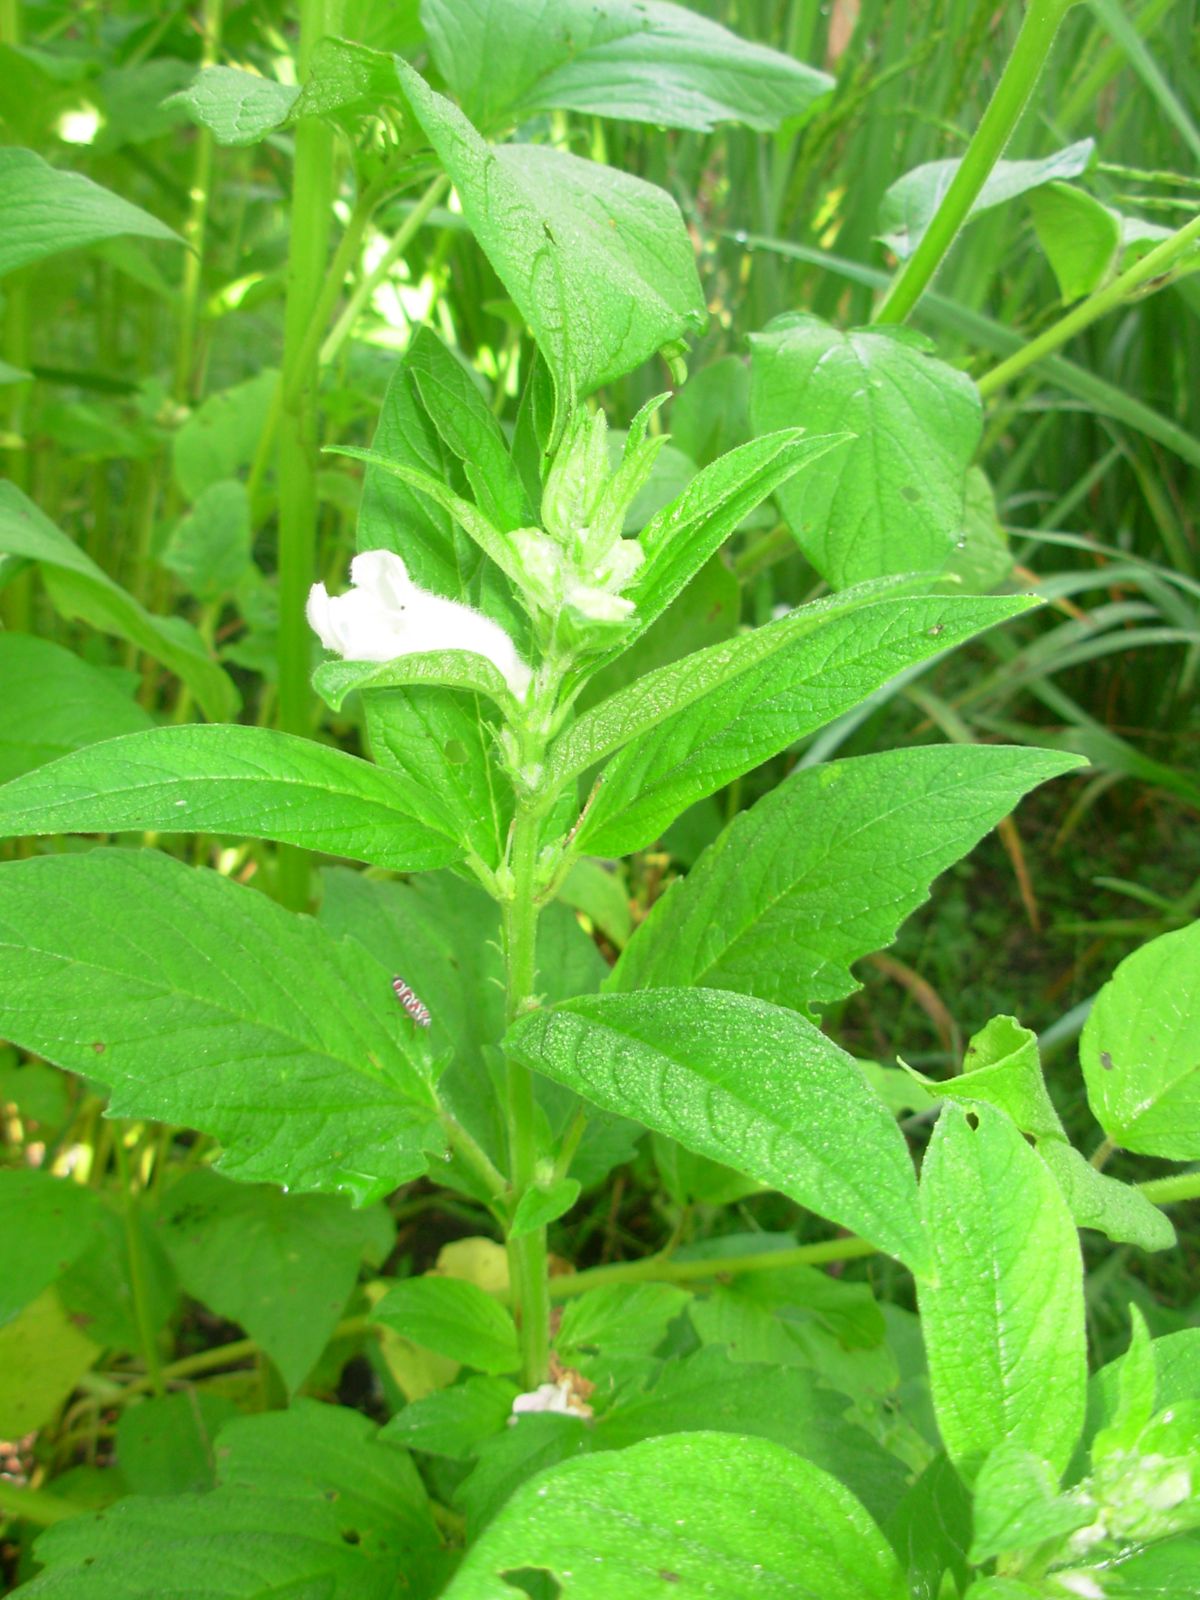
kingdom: Plantae
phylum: Tracheophyta
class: Magnoliopsida
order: Lamiales
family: Pedaliaceae
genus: Sesamum
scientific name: Sesamum indicum
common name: Sesame
